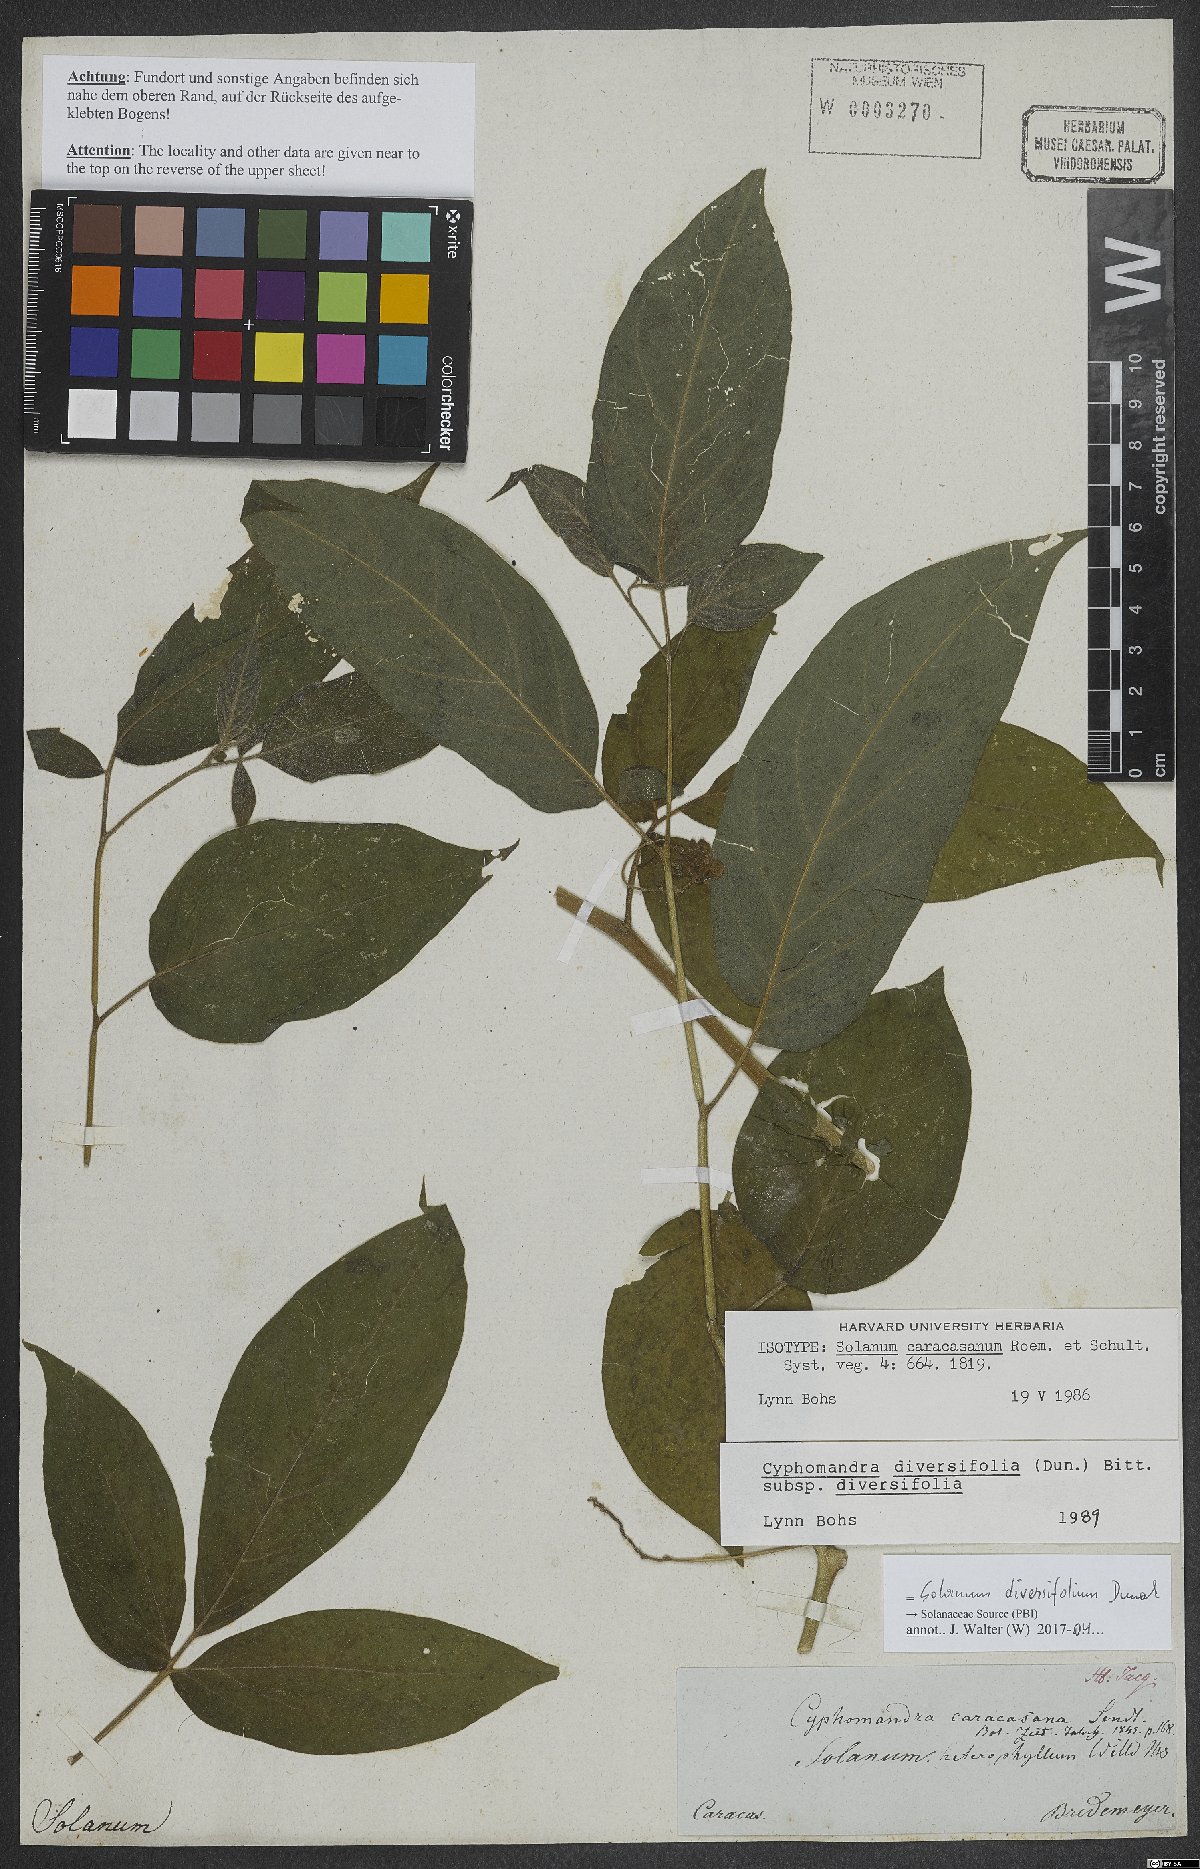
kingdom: Plantae
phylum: Tracheophyta
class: Magnoliopsida
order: Solanales
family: Solanaceae
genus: Solanum
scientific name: Solanum melissarum
